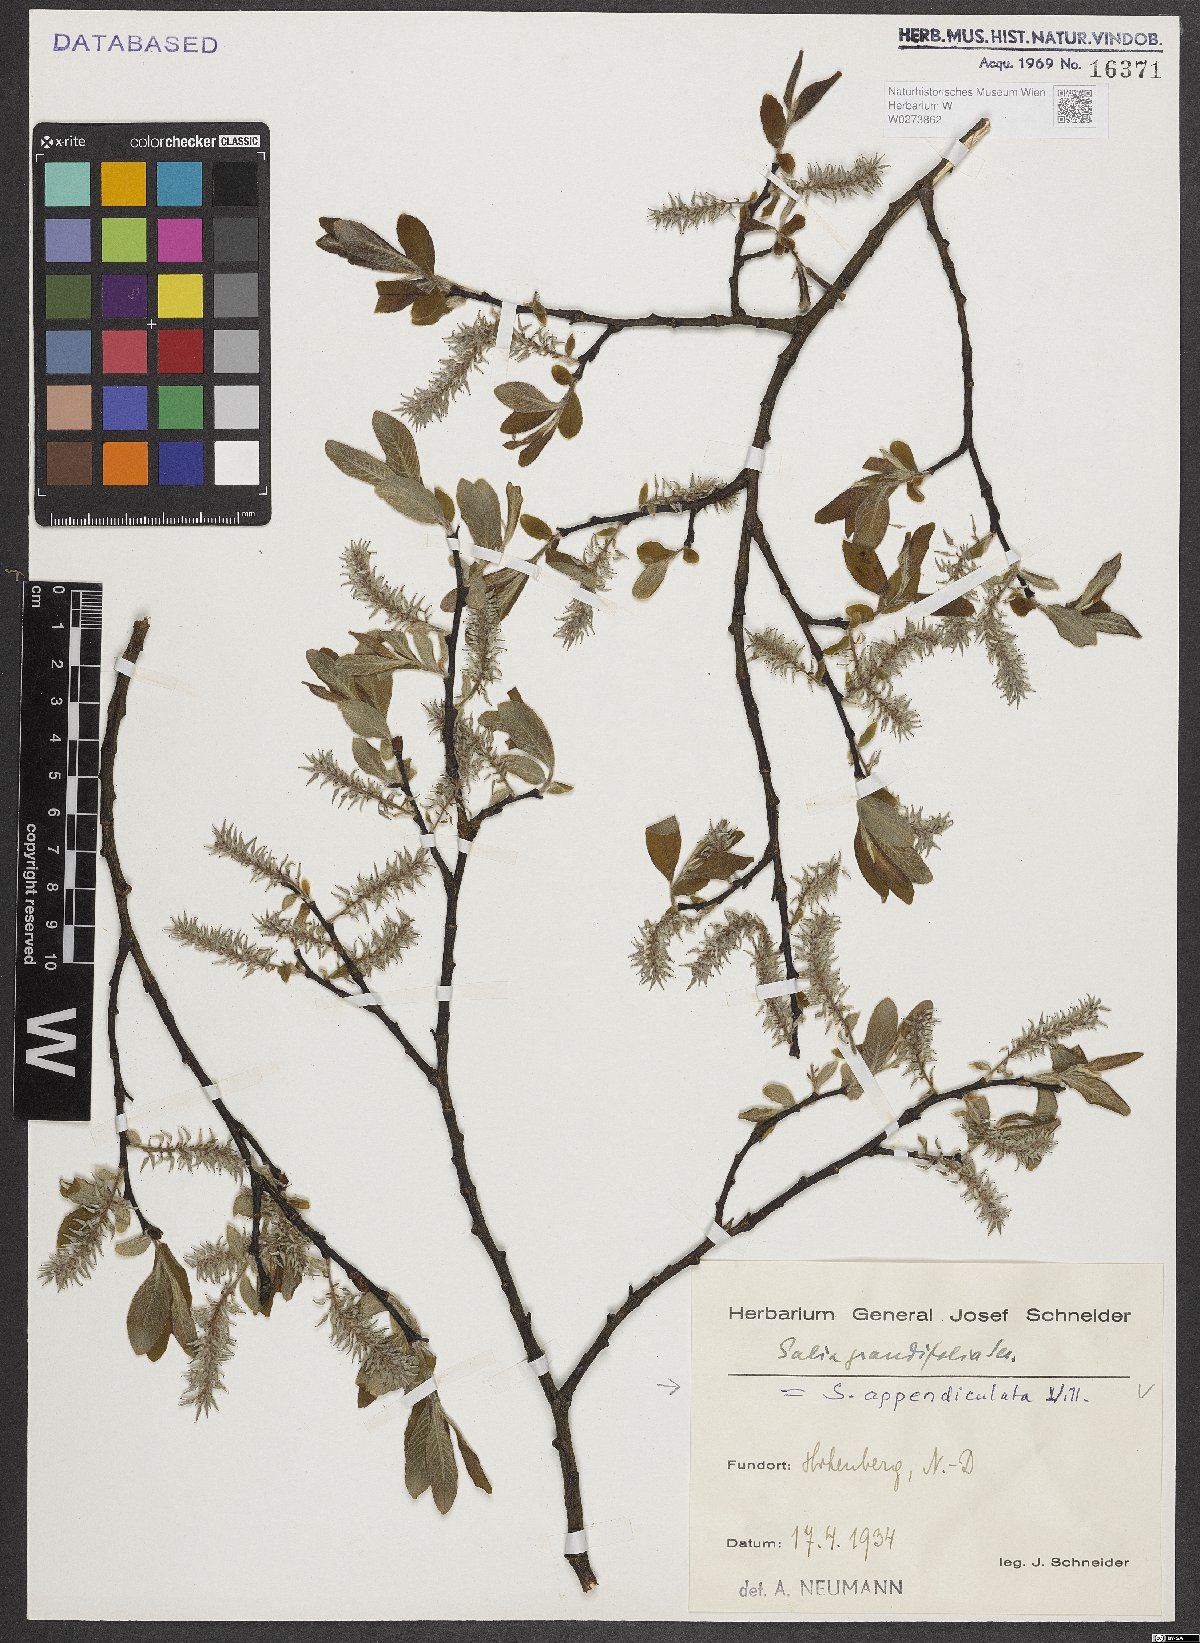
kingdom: Plantae
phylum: Tracheophyta
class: Magnoliopsida
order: Malpighiales
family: Salicaceae
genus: Salix
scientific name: Salix appendiculata
